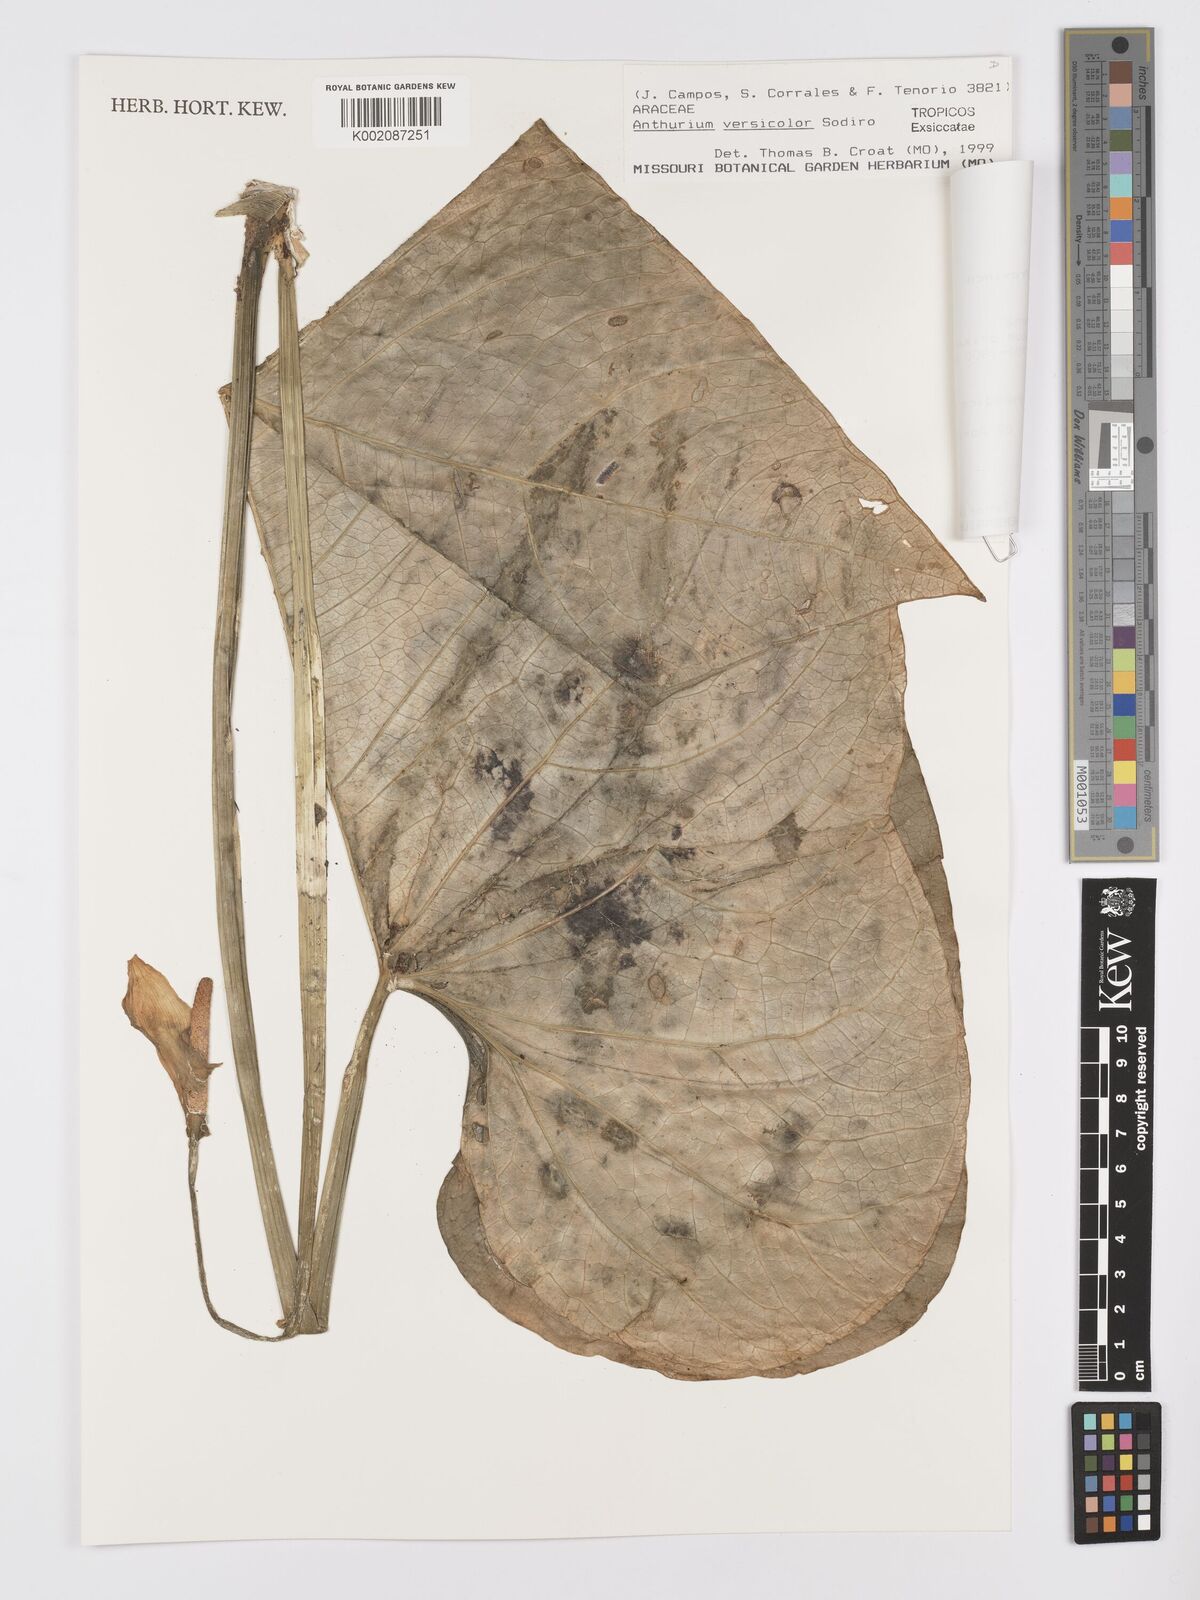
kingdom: Plantae
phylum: Tracheophyta
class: Liliopsida
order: Alismatales
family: Araceae
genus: Anthurium
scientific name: Anthurium versicolor
